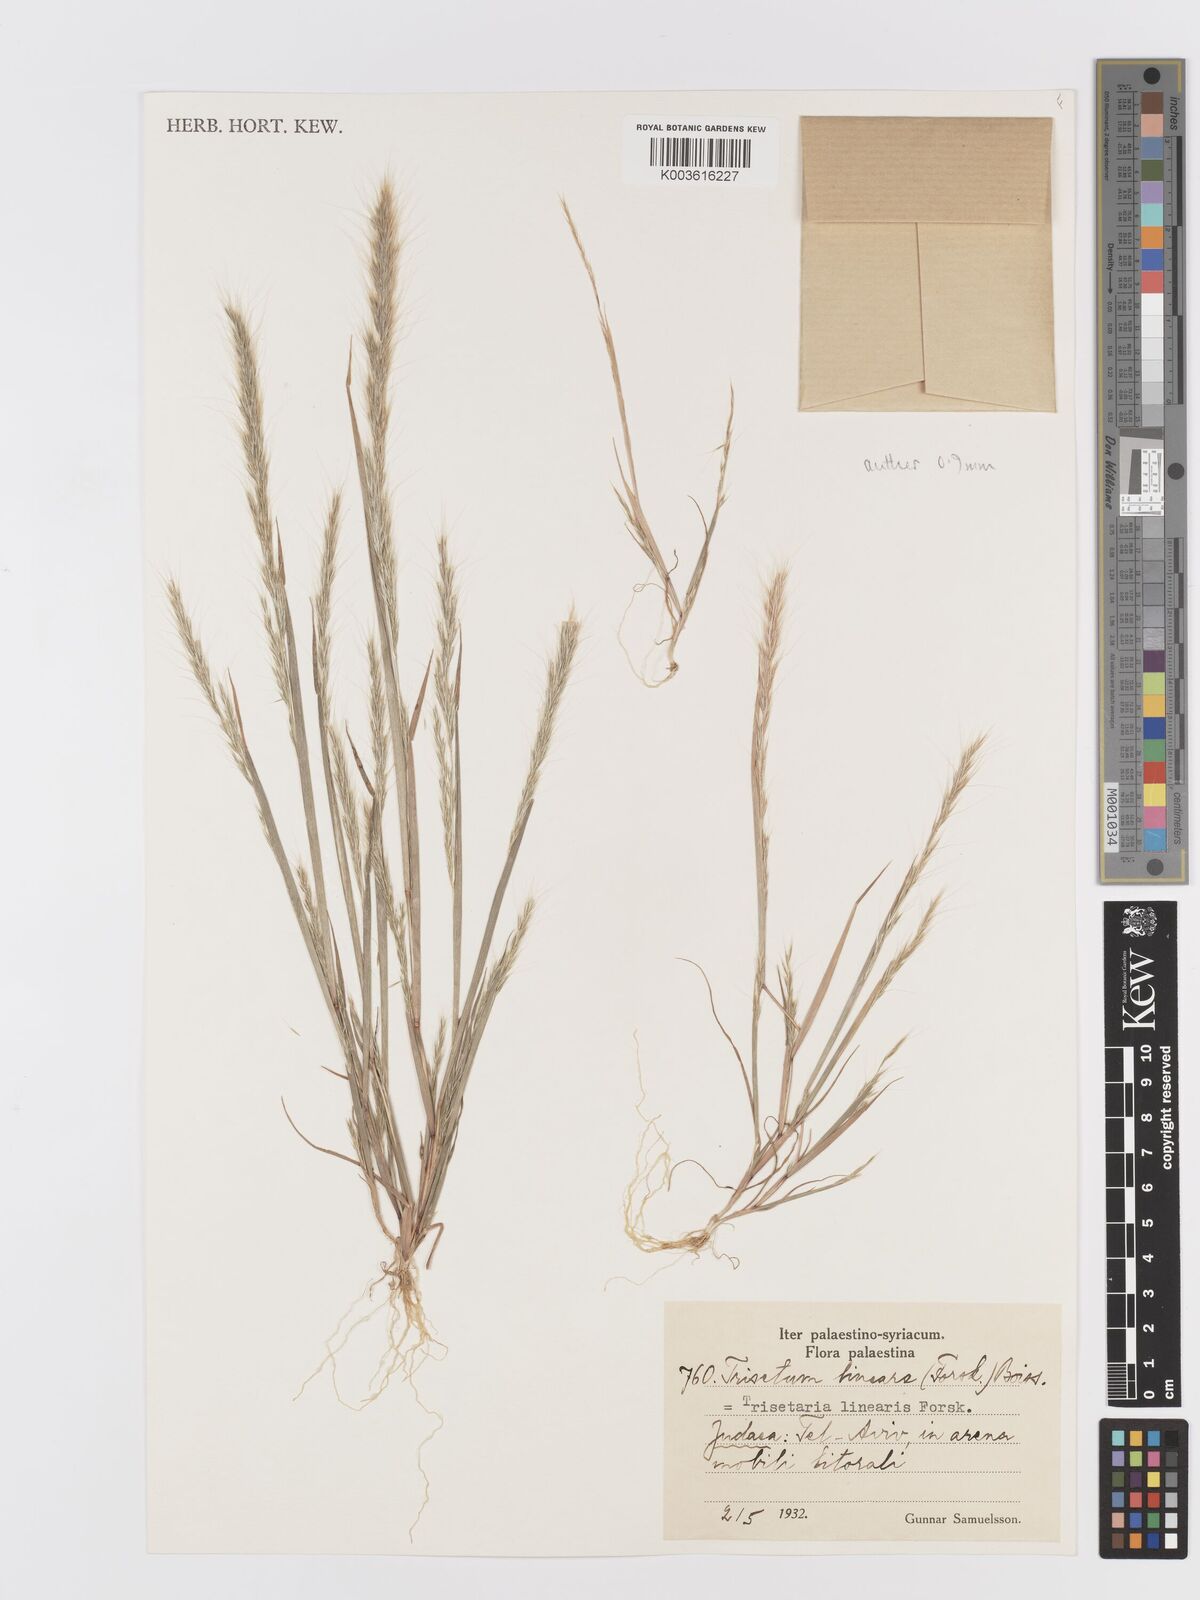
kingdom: Plantae
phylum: Tracheophyta
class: Liliopsida
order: Poales
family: Poaceae
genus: Trisetaria
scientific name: Trisetaria linearis
